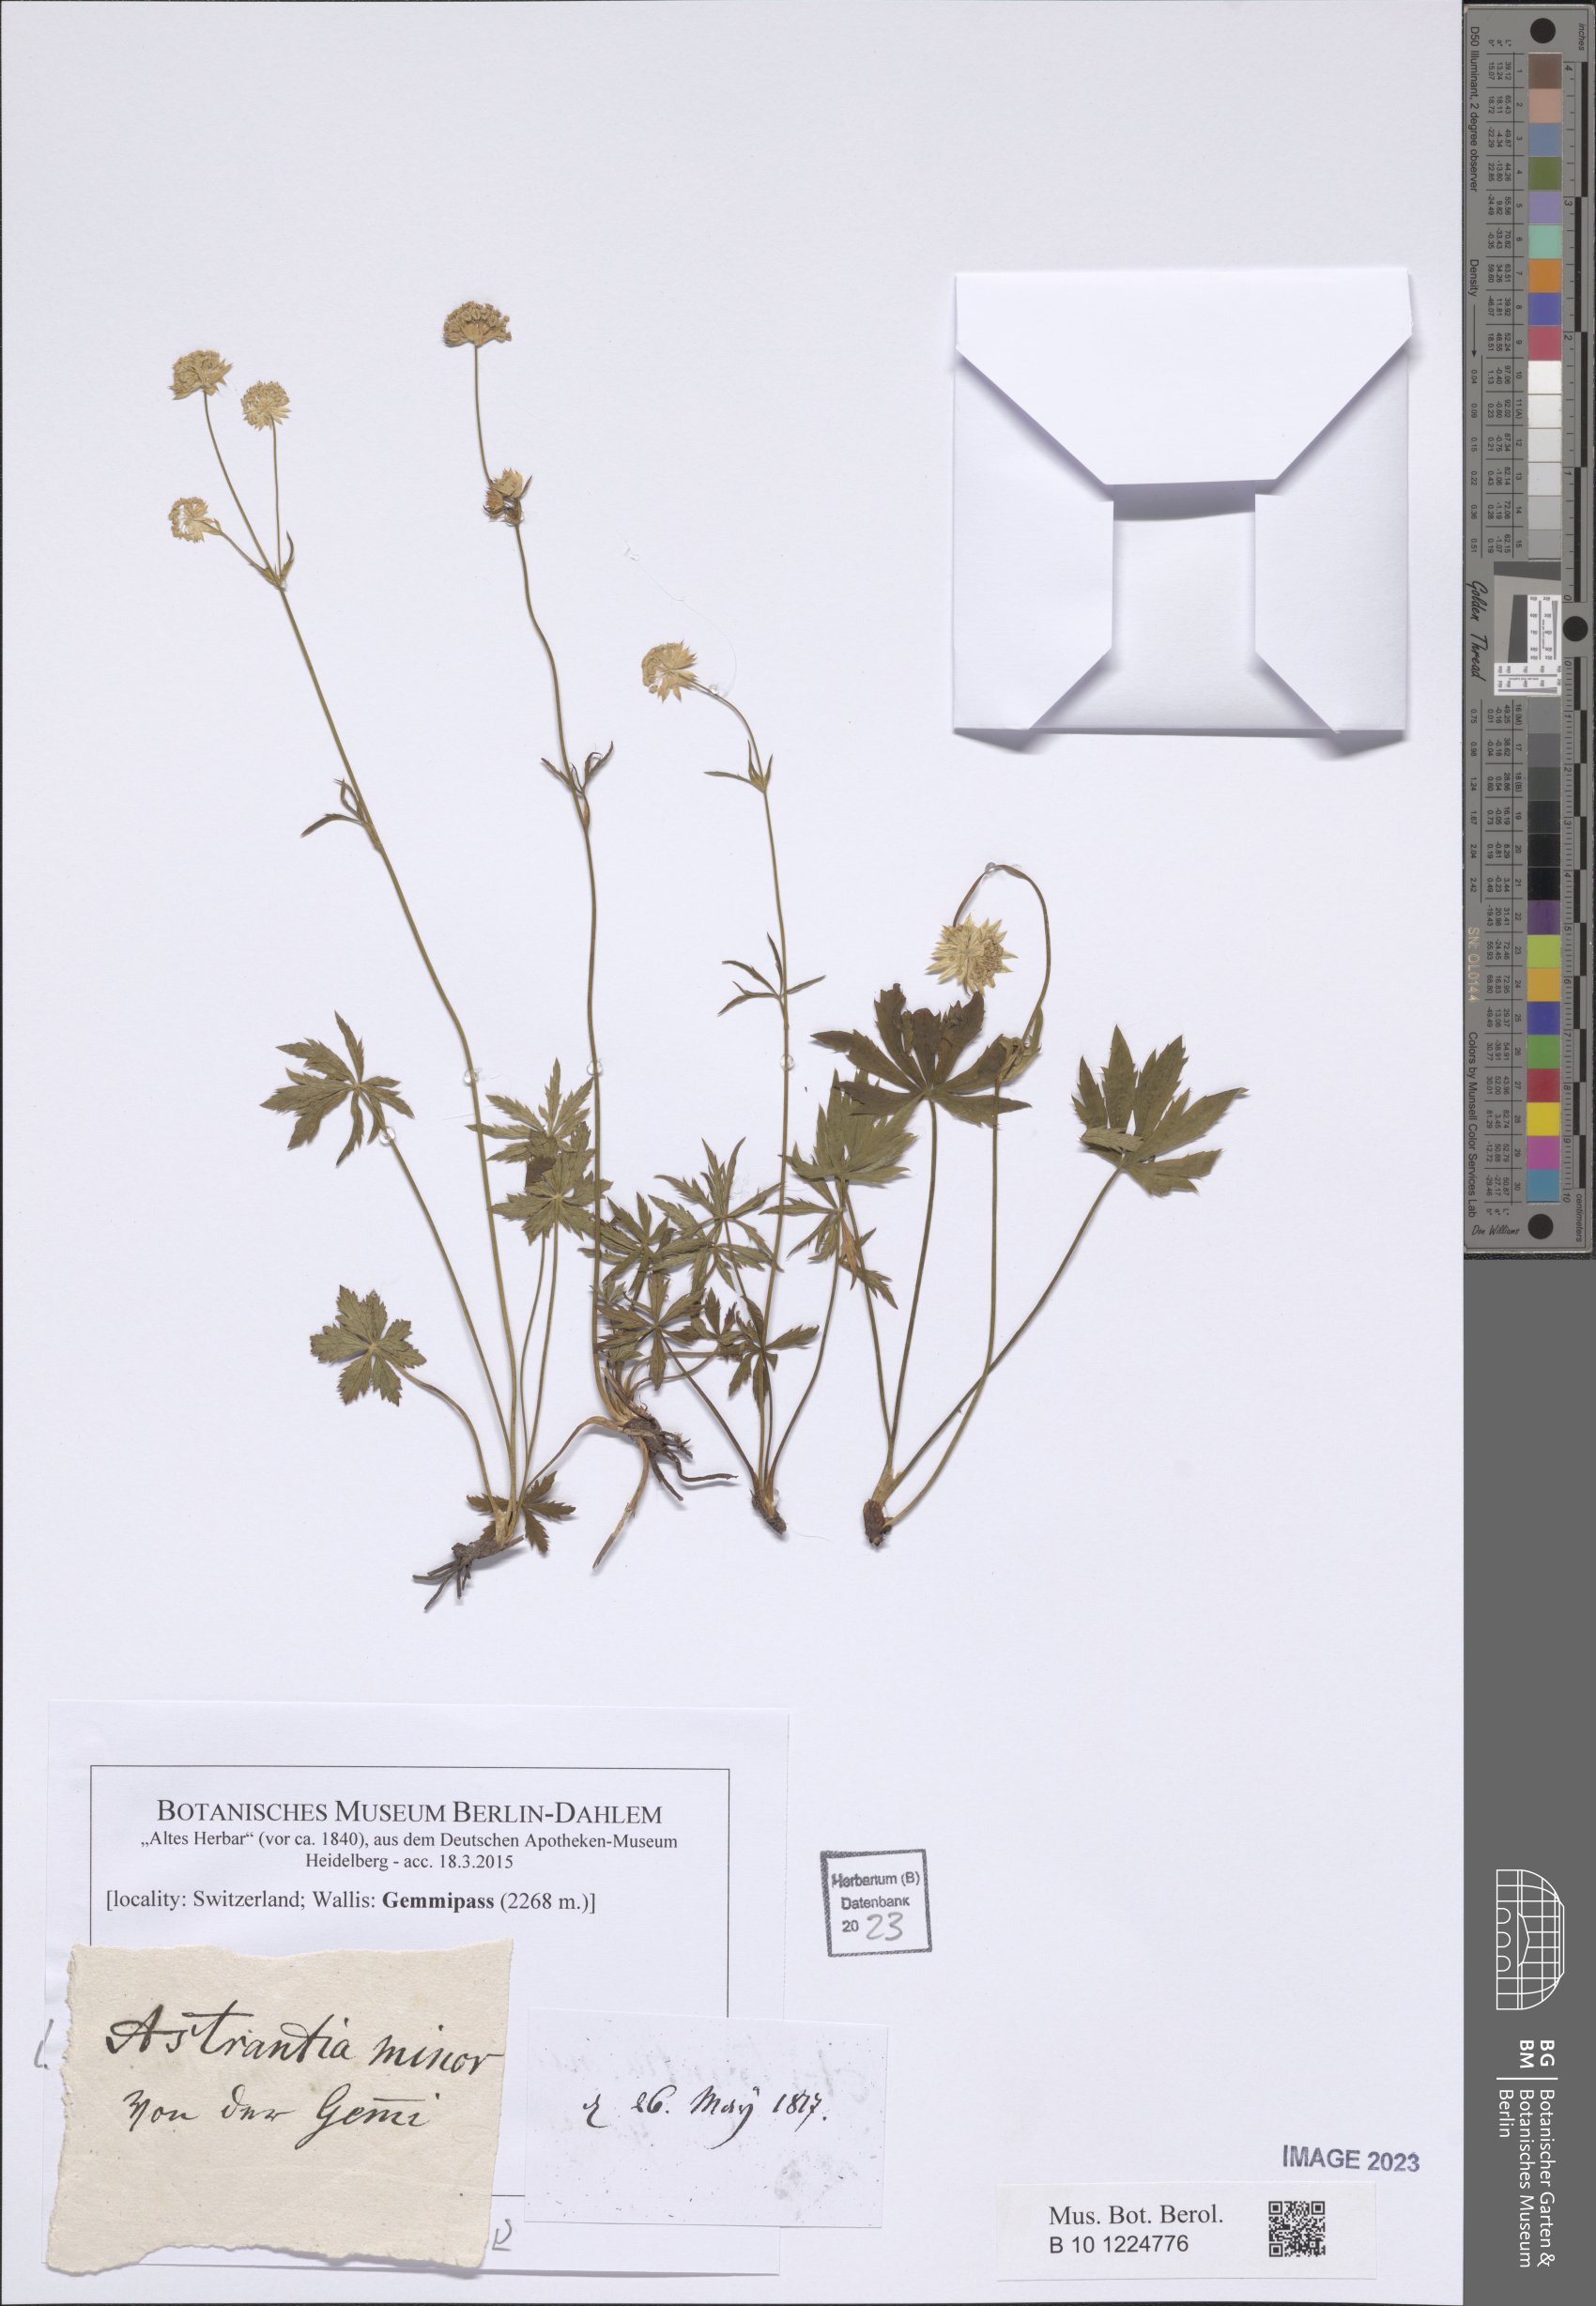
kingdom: Plantae
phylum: Tracheophyta
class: Magnoliopsida
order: Apiales
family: Apiaceae
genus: Astrantia
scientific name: Astrantia minor
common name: Lesser masterwort
